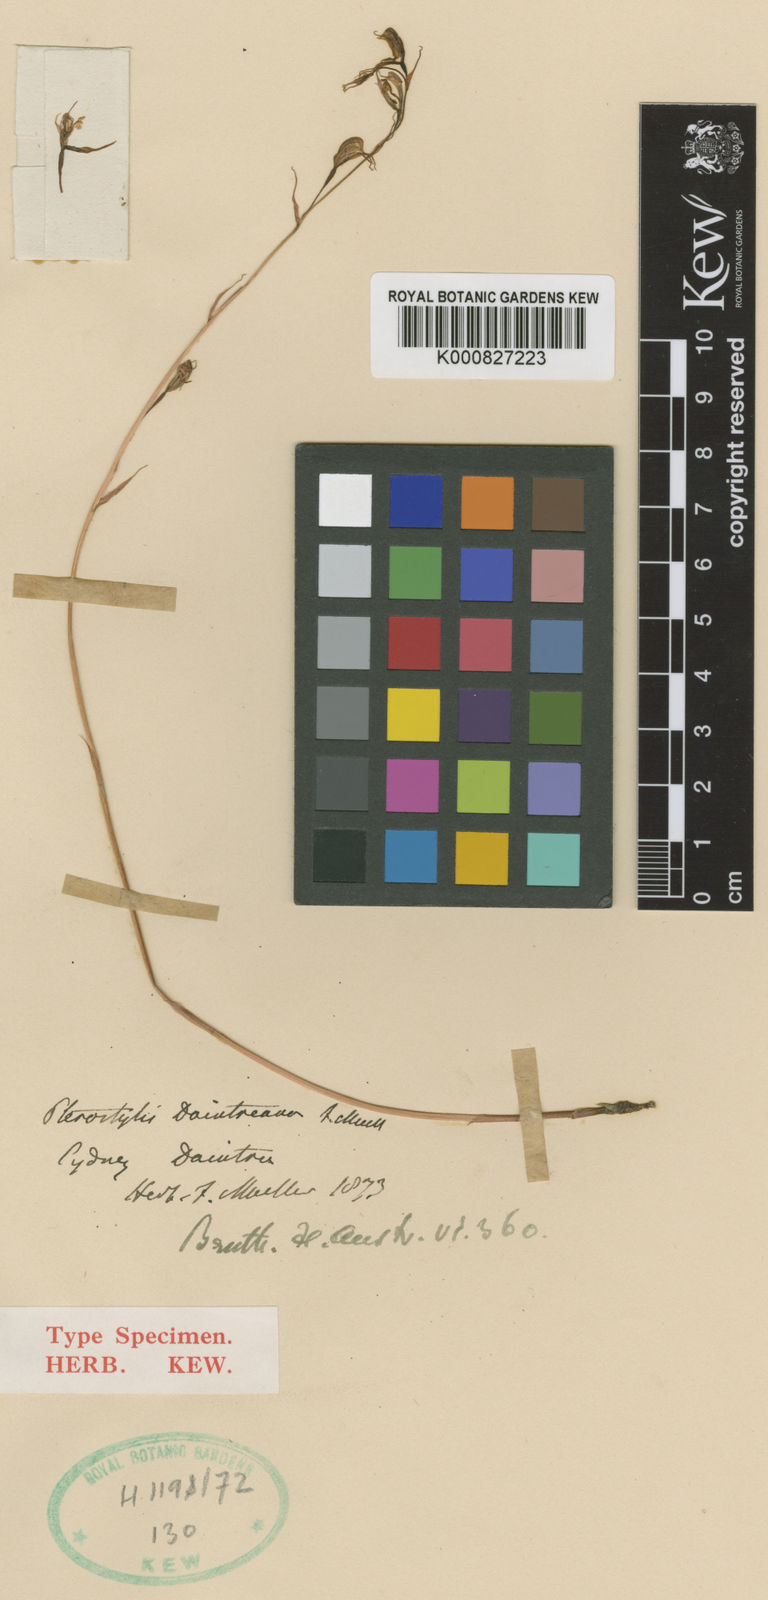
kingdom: Plantae
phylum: Tracheophyta
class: Liliopsida
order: Asparagales
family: Orchidaceae
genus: Pterostylis
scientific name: Pterostylis daintreana
